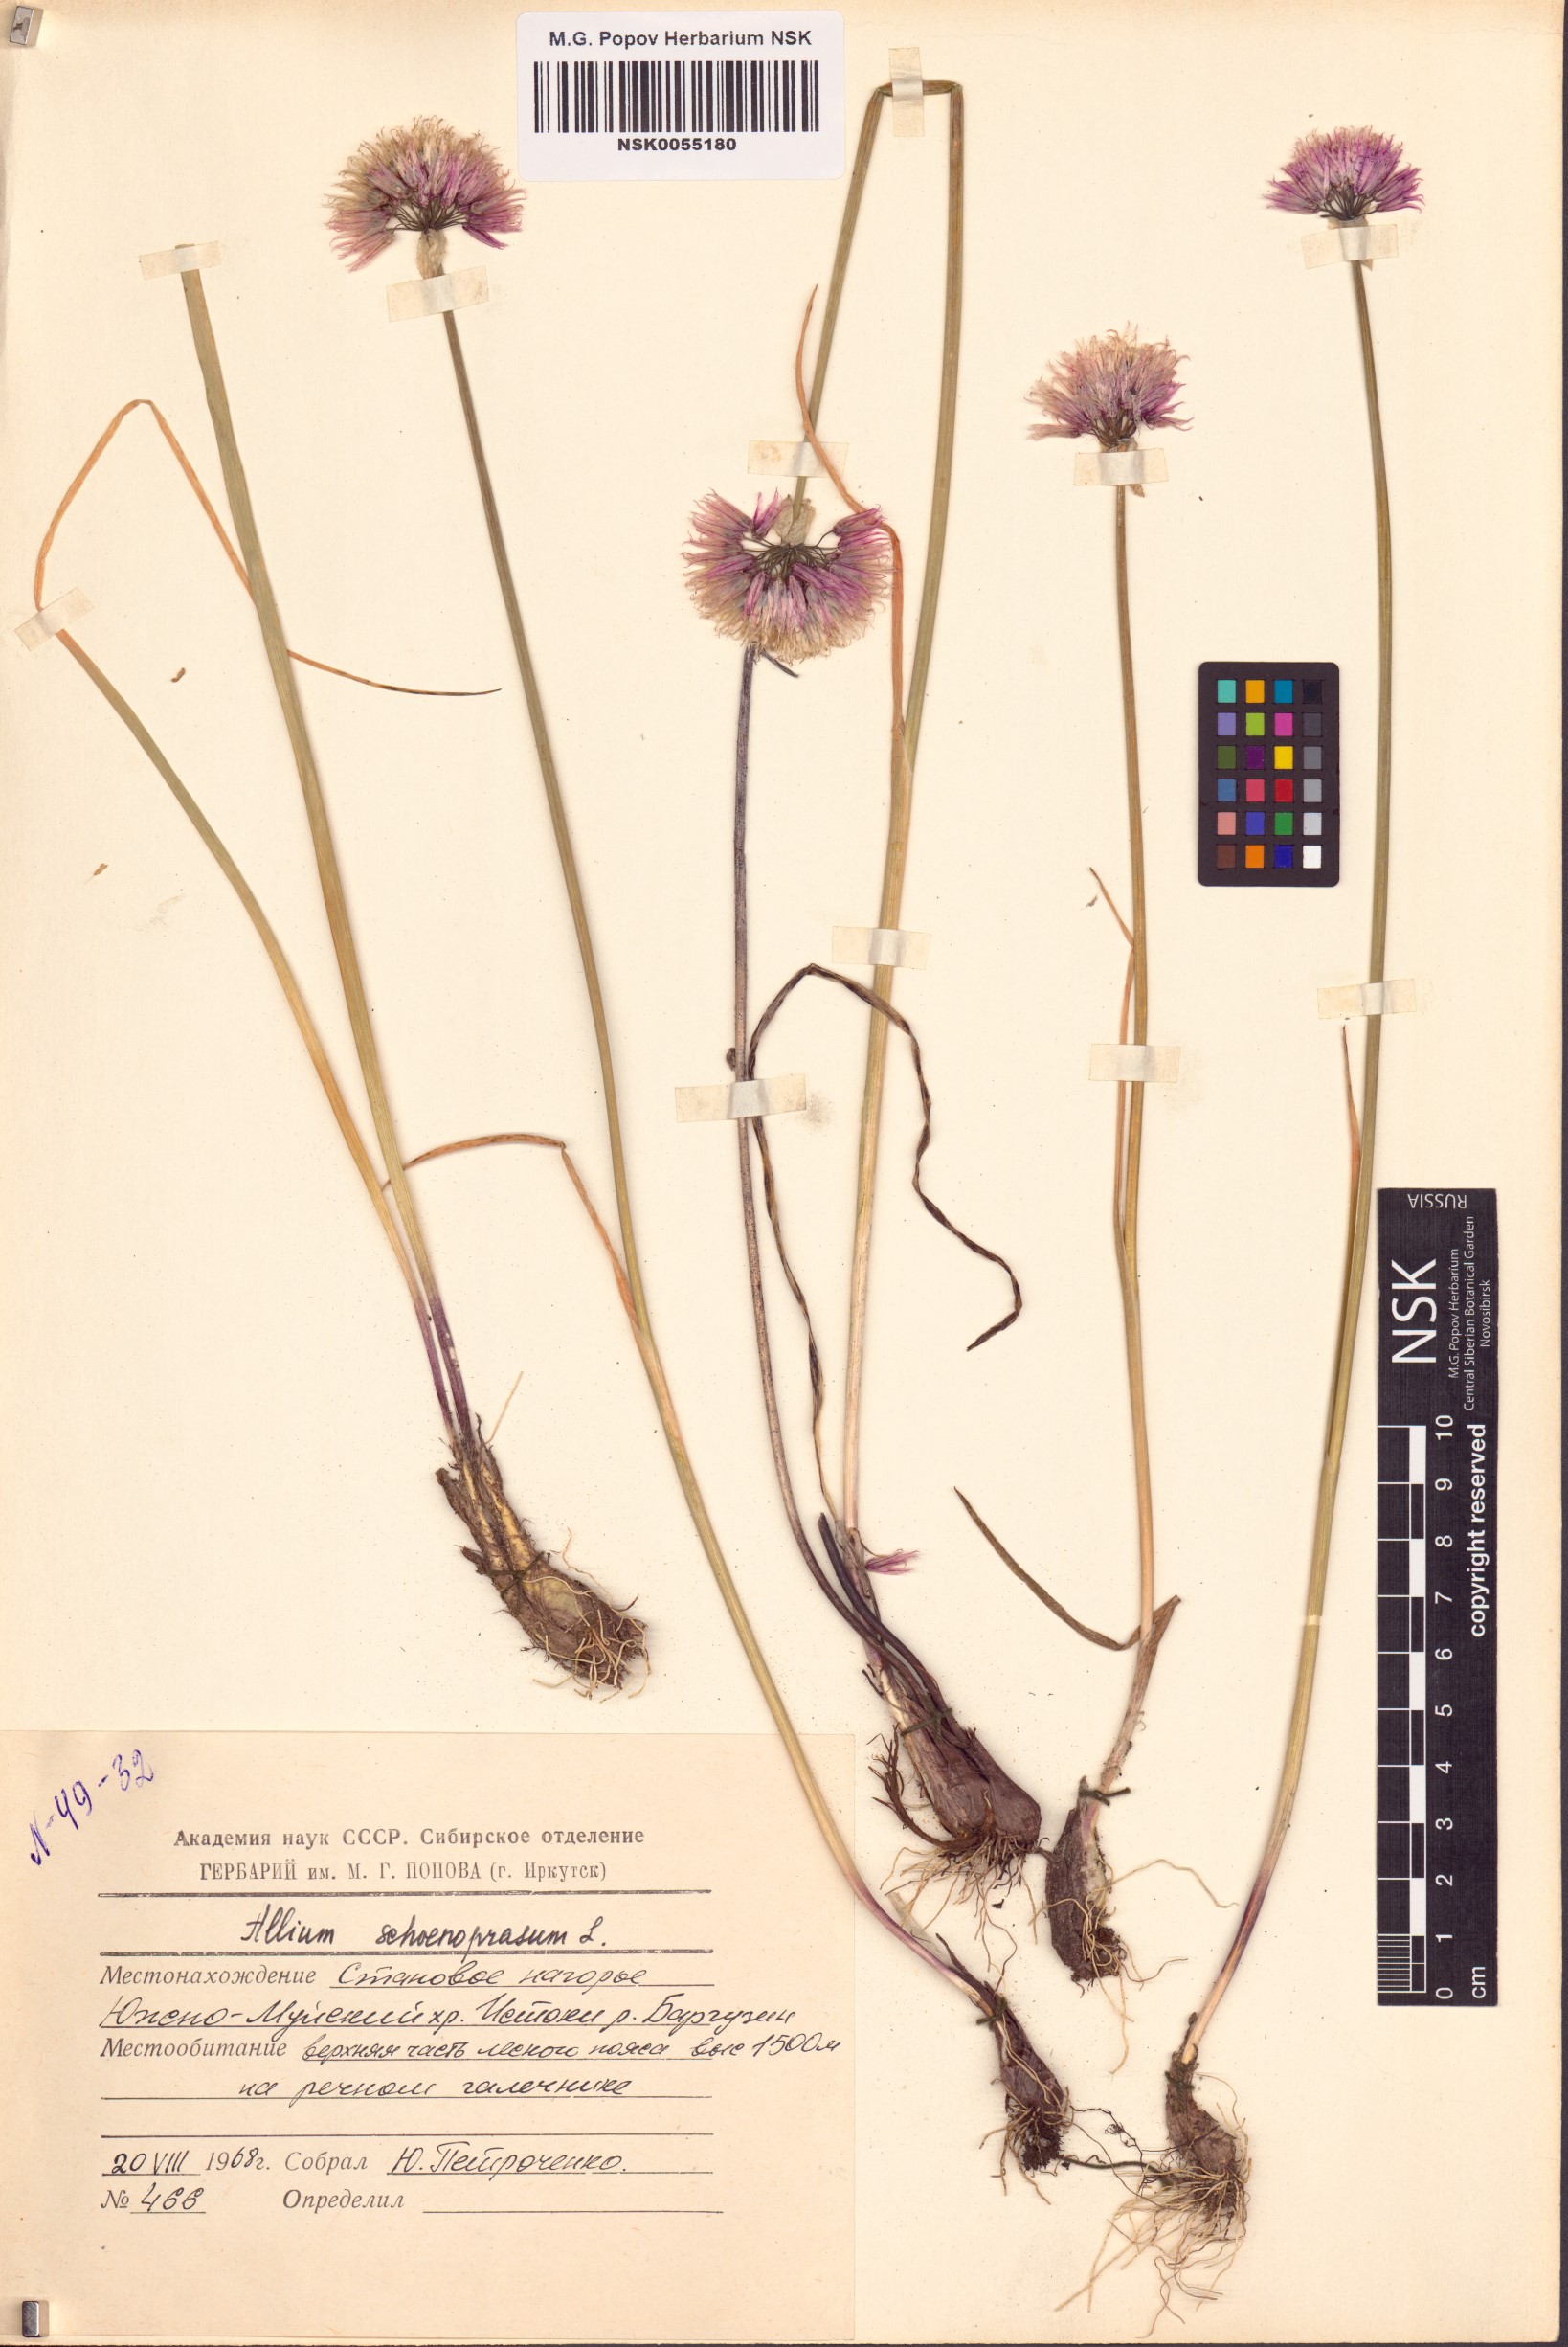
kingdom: Plantae
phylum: Tracheophyta
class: Liliopsida
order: Asparagales
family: Amaryllidaceae
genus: Allium
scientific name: Allium schoenoprasum
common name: Chives
